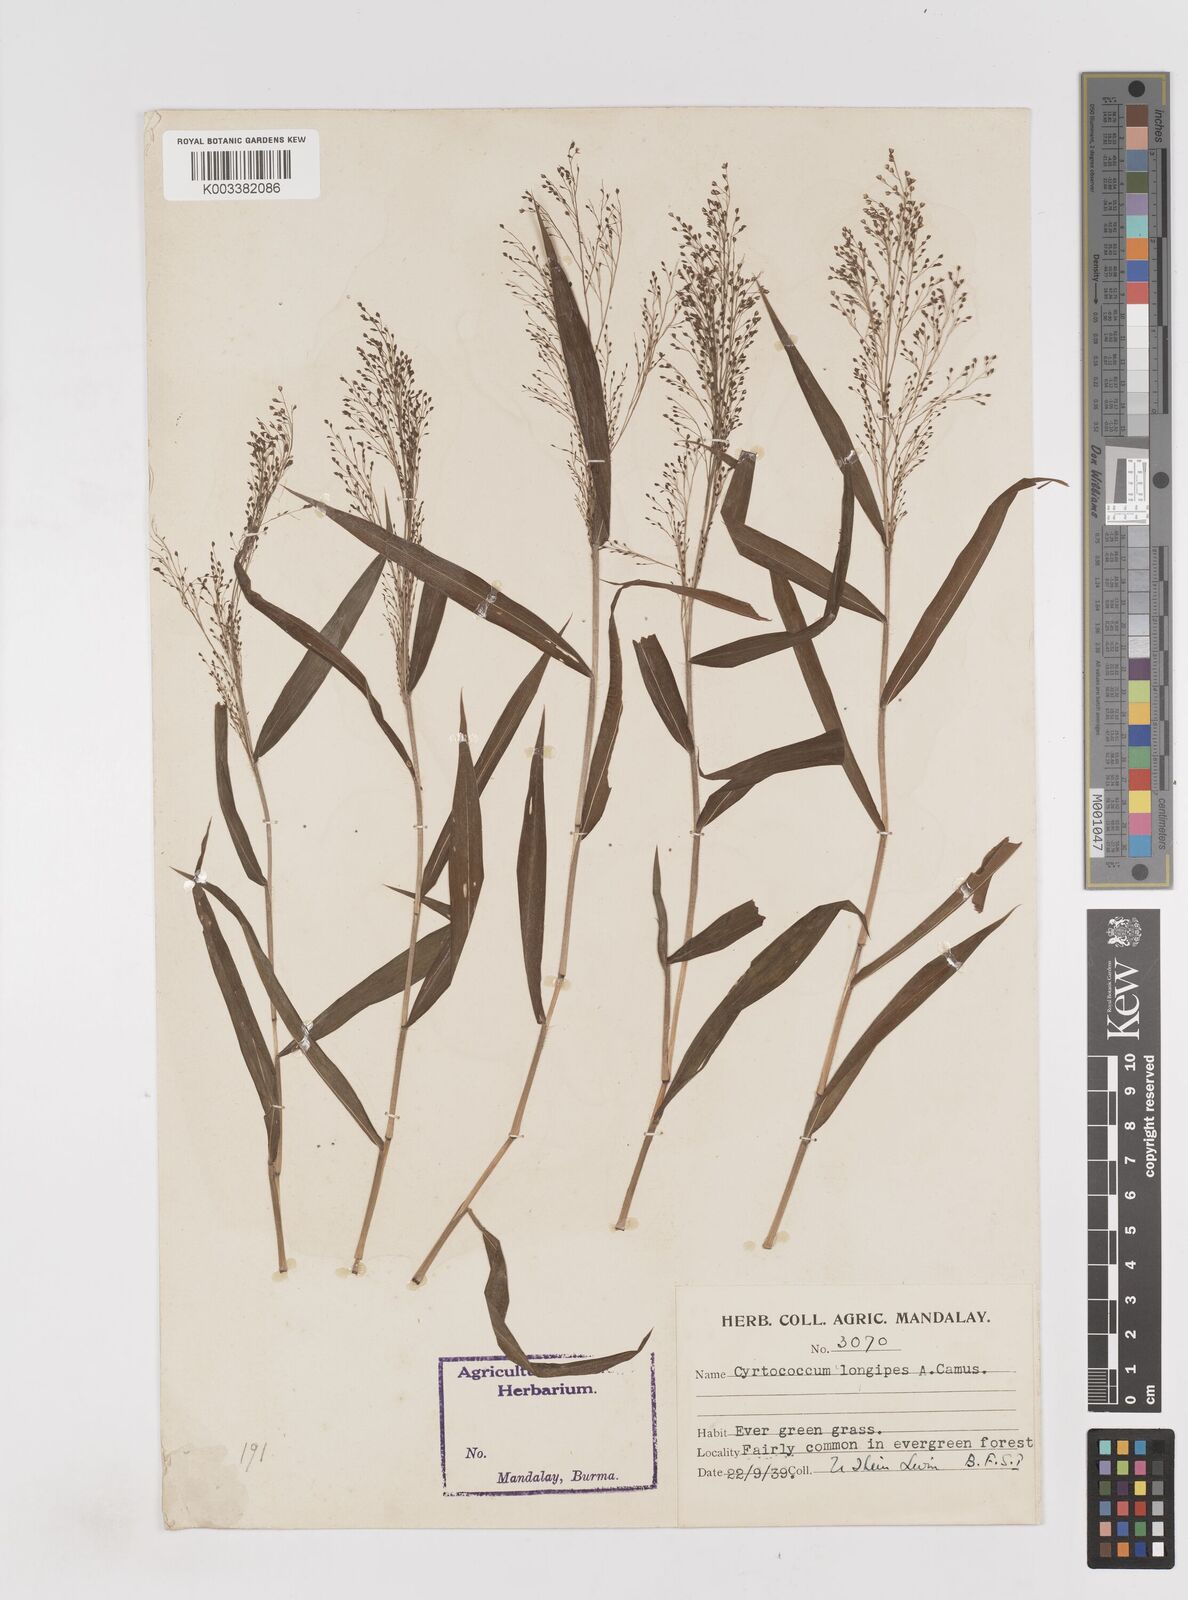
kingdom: Plantae
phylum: Tracheophyta
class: Liliopsida
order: Poales
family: Poaceae
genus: Cyrtococcum
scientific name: Cyrtococcum longipes
